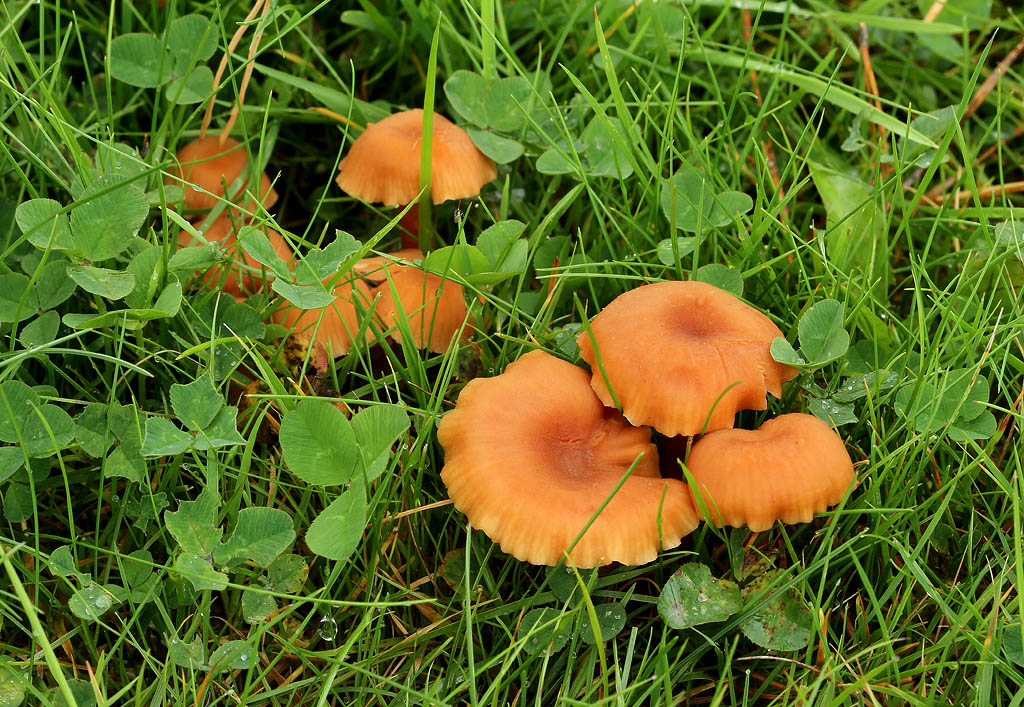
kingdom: Fungi
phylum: Basidiomycota
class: Agaricomycetes
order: Agaricales
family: Hydnangiaceae
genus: Laccaria
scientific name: Laccaria laccata
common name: rød ametysthat
